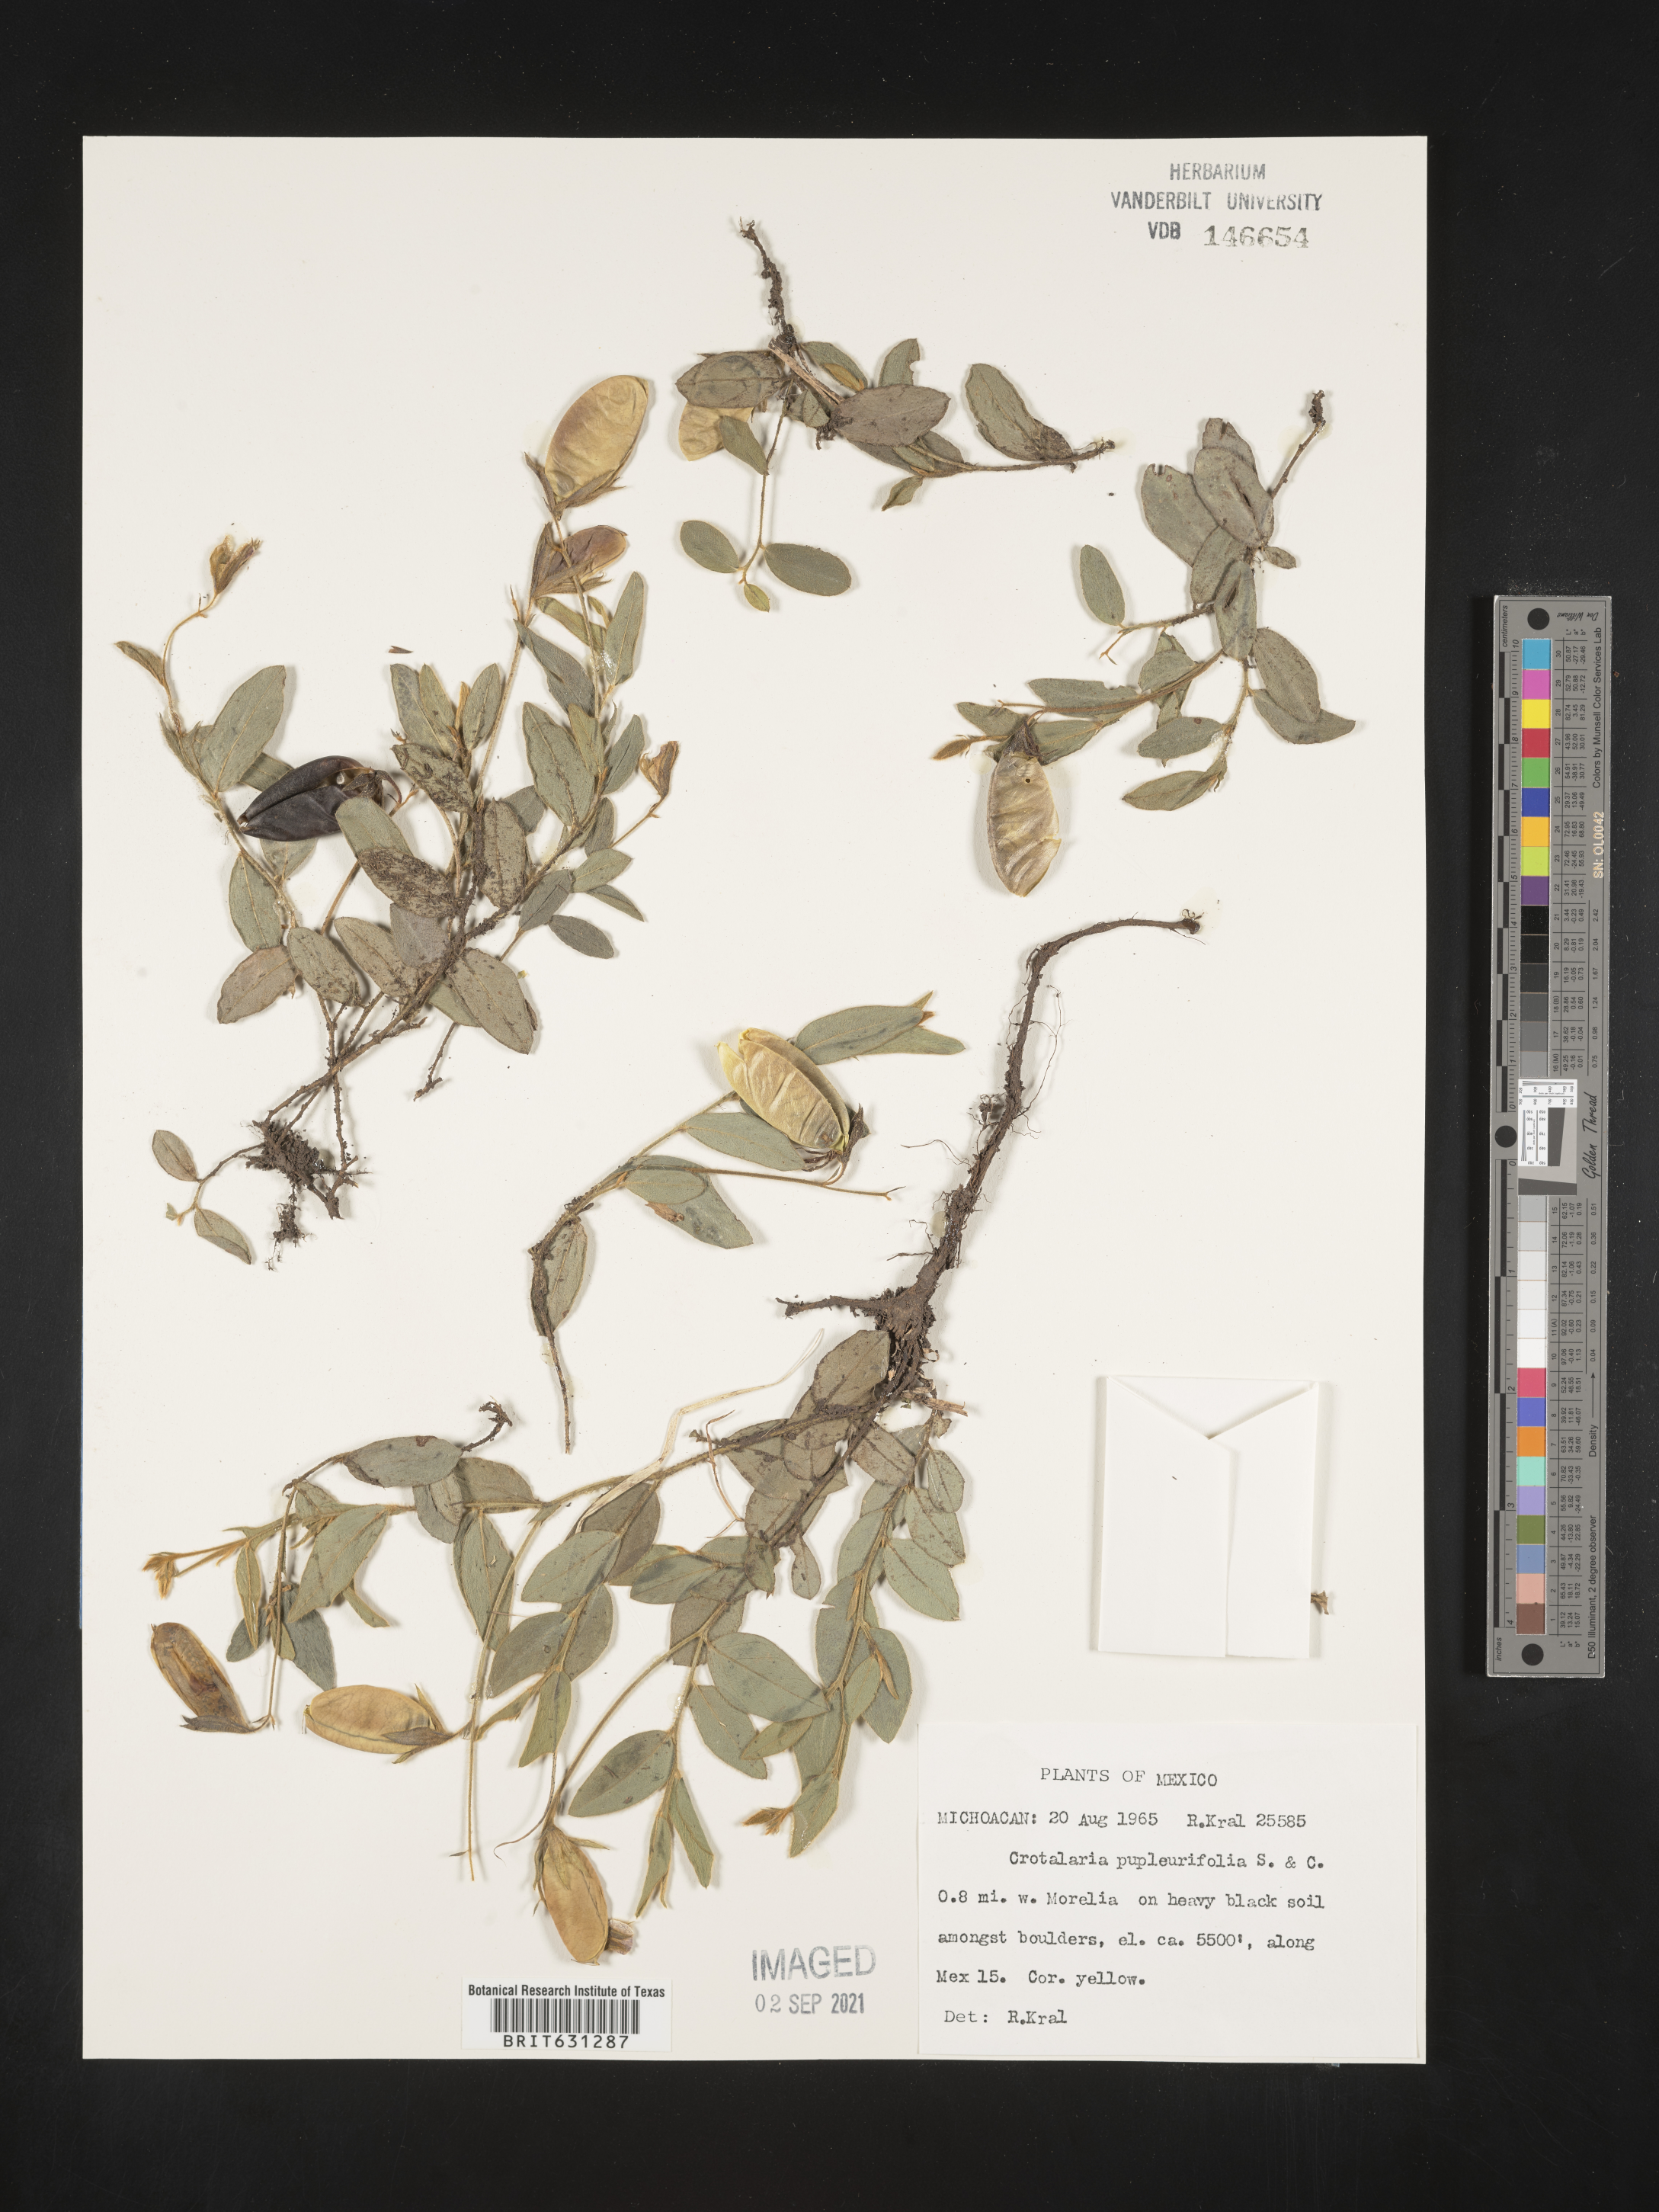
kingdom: Plantae
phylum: Tracheophyta
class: Magnoliopsida
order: Fabales
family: Fabaceae
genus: Crotalaria
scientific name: Crotalaria
